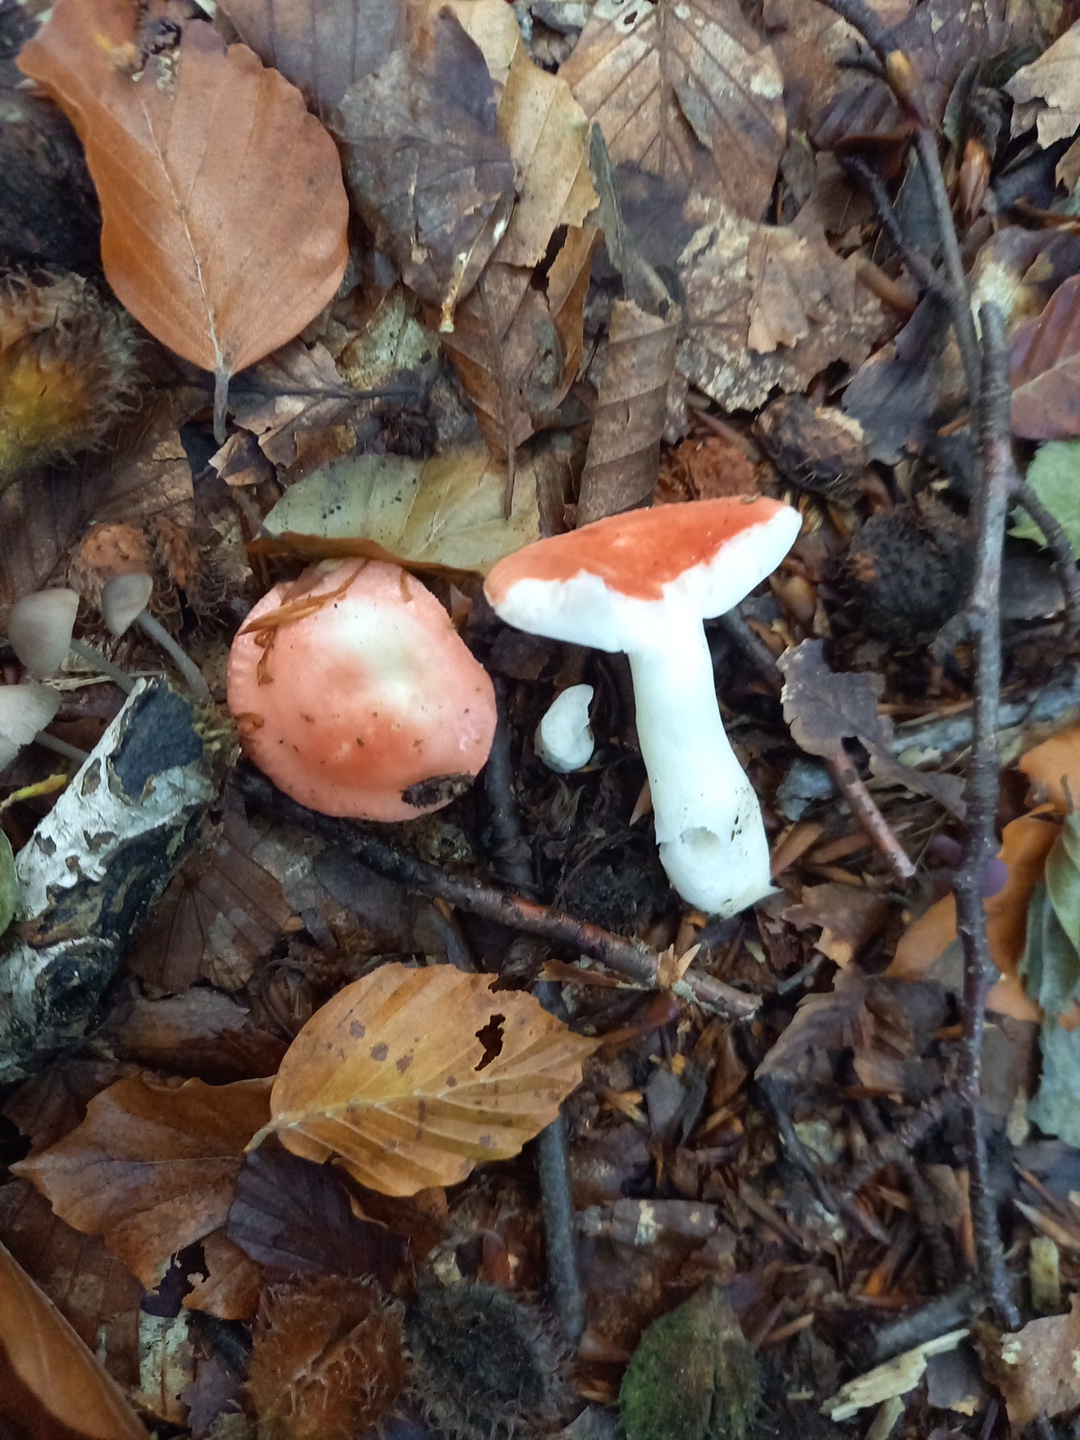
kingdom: Fungi
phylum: Basidiomycota
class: Agaricomycetes
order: Russulales
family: Russulaceae
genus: Russula
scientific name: Russula nobilis
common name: lille gift-skørhat
